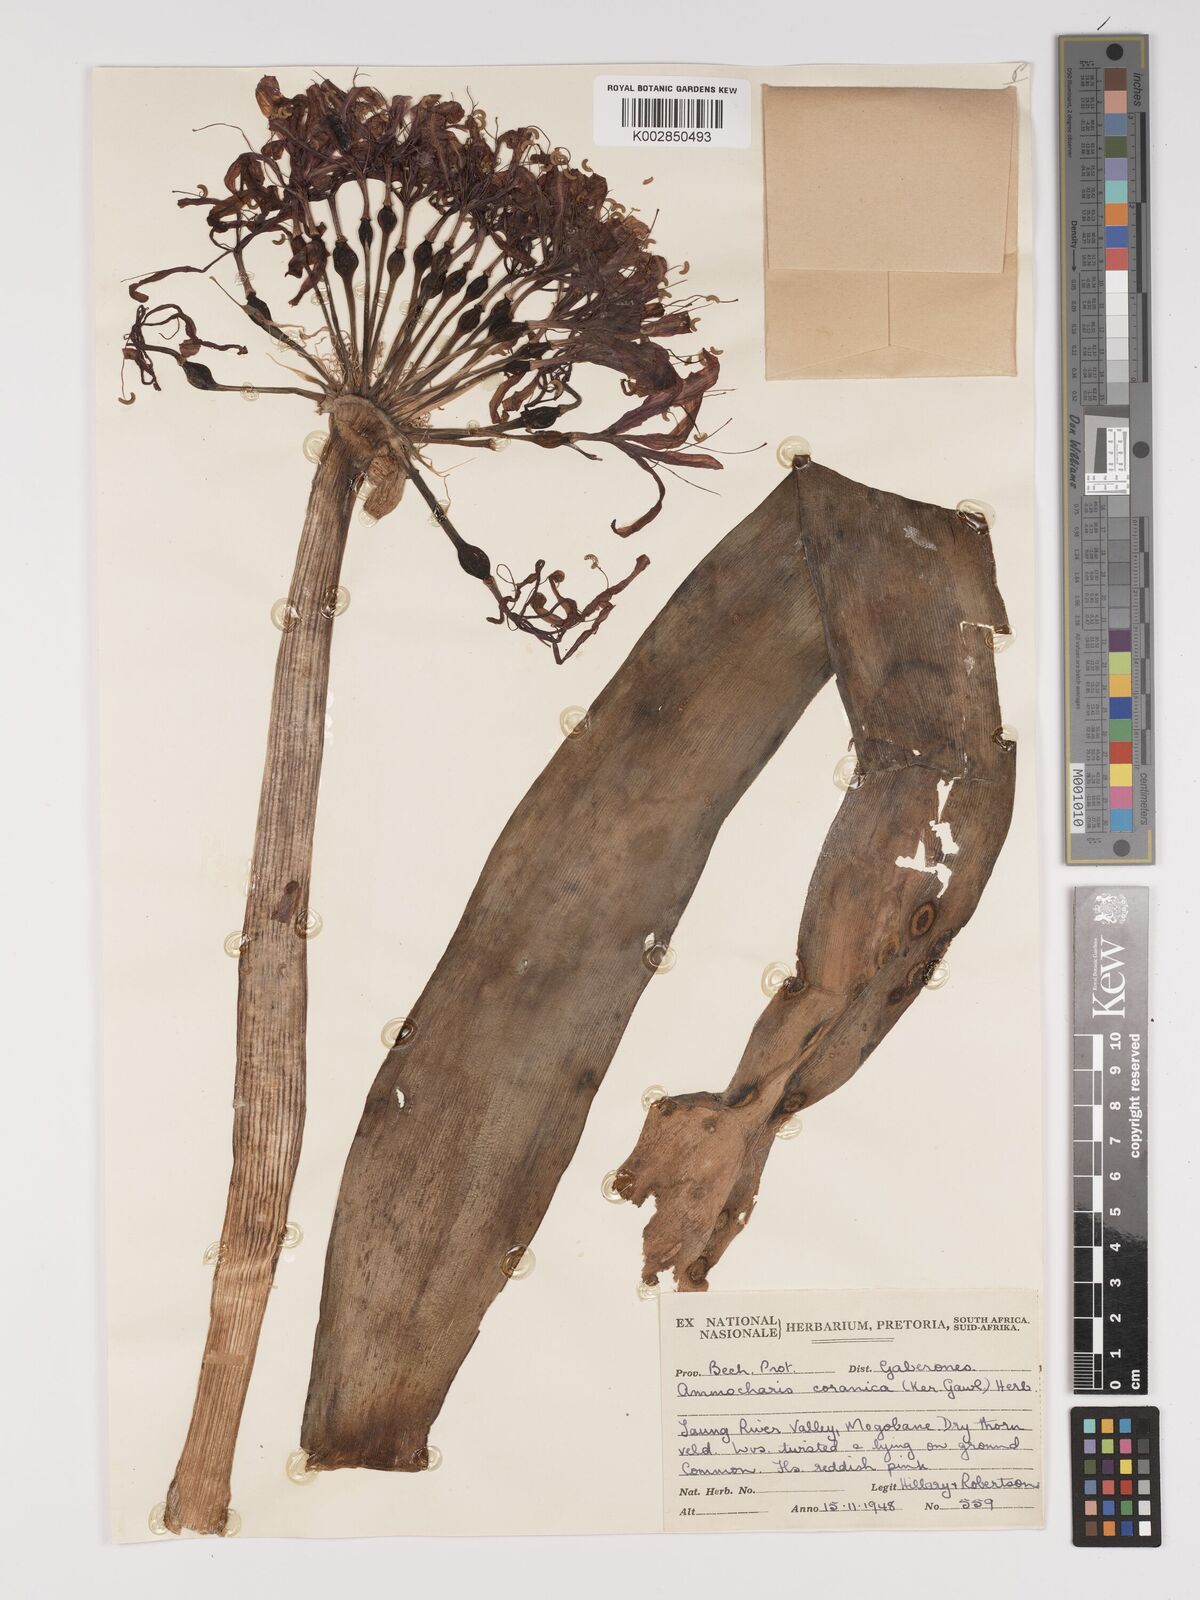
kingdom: Plantae
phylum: Tracheophyta
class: Liliopsida
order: Asparagales
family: Amaryllidaceae
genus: Ammocharis
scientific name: Ammocharis coranica
